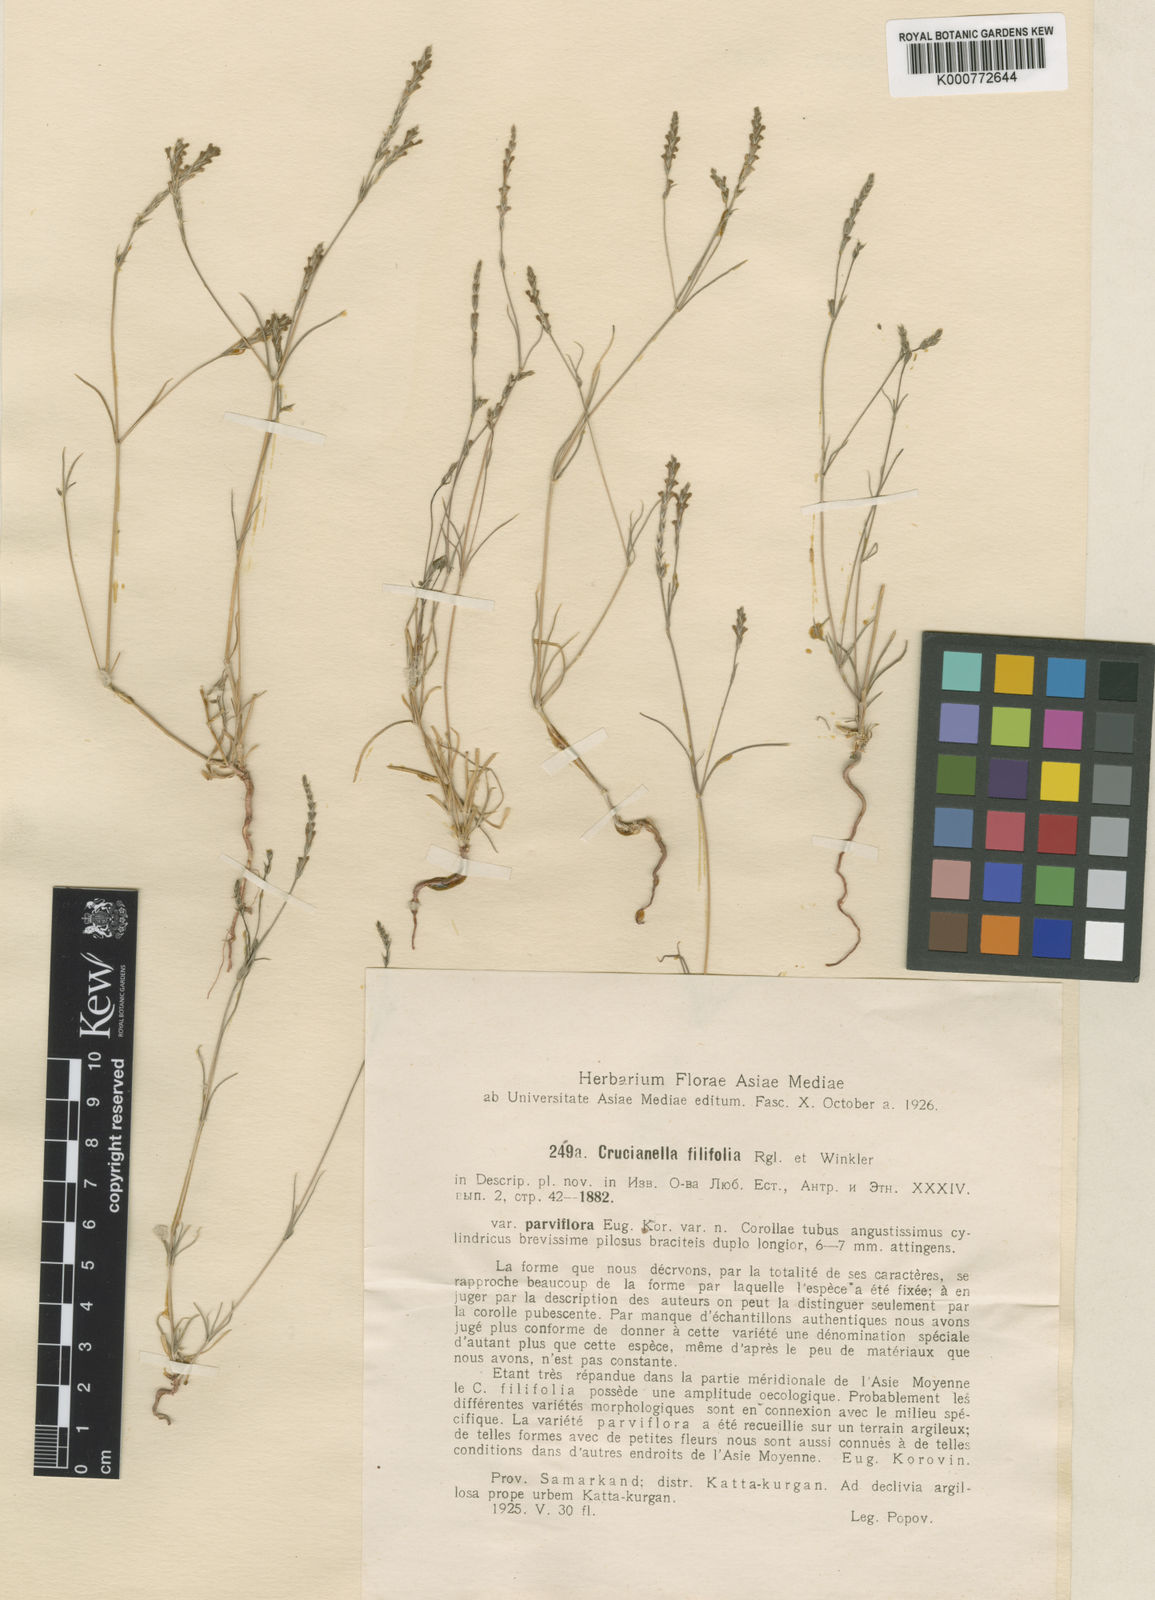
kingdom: Plantae
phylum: Tracheophyta
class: Magnoliopsida
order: Gentianales
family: Rubiaceae
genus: Crucianella
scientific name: Crucianella filifolia
